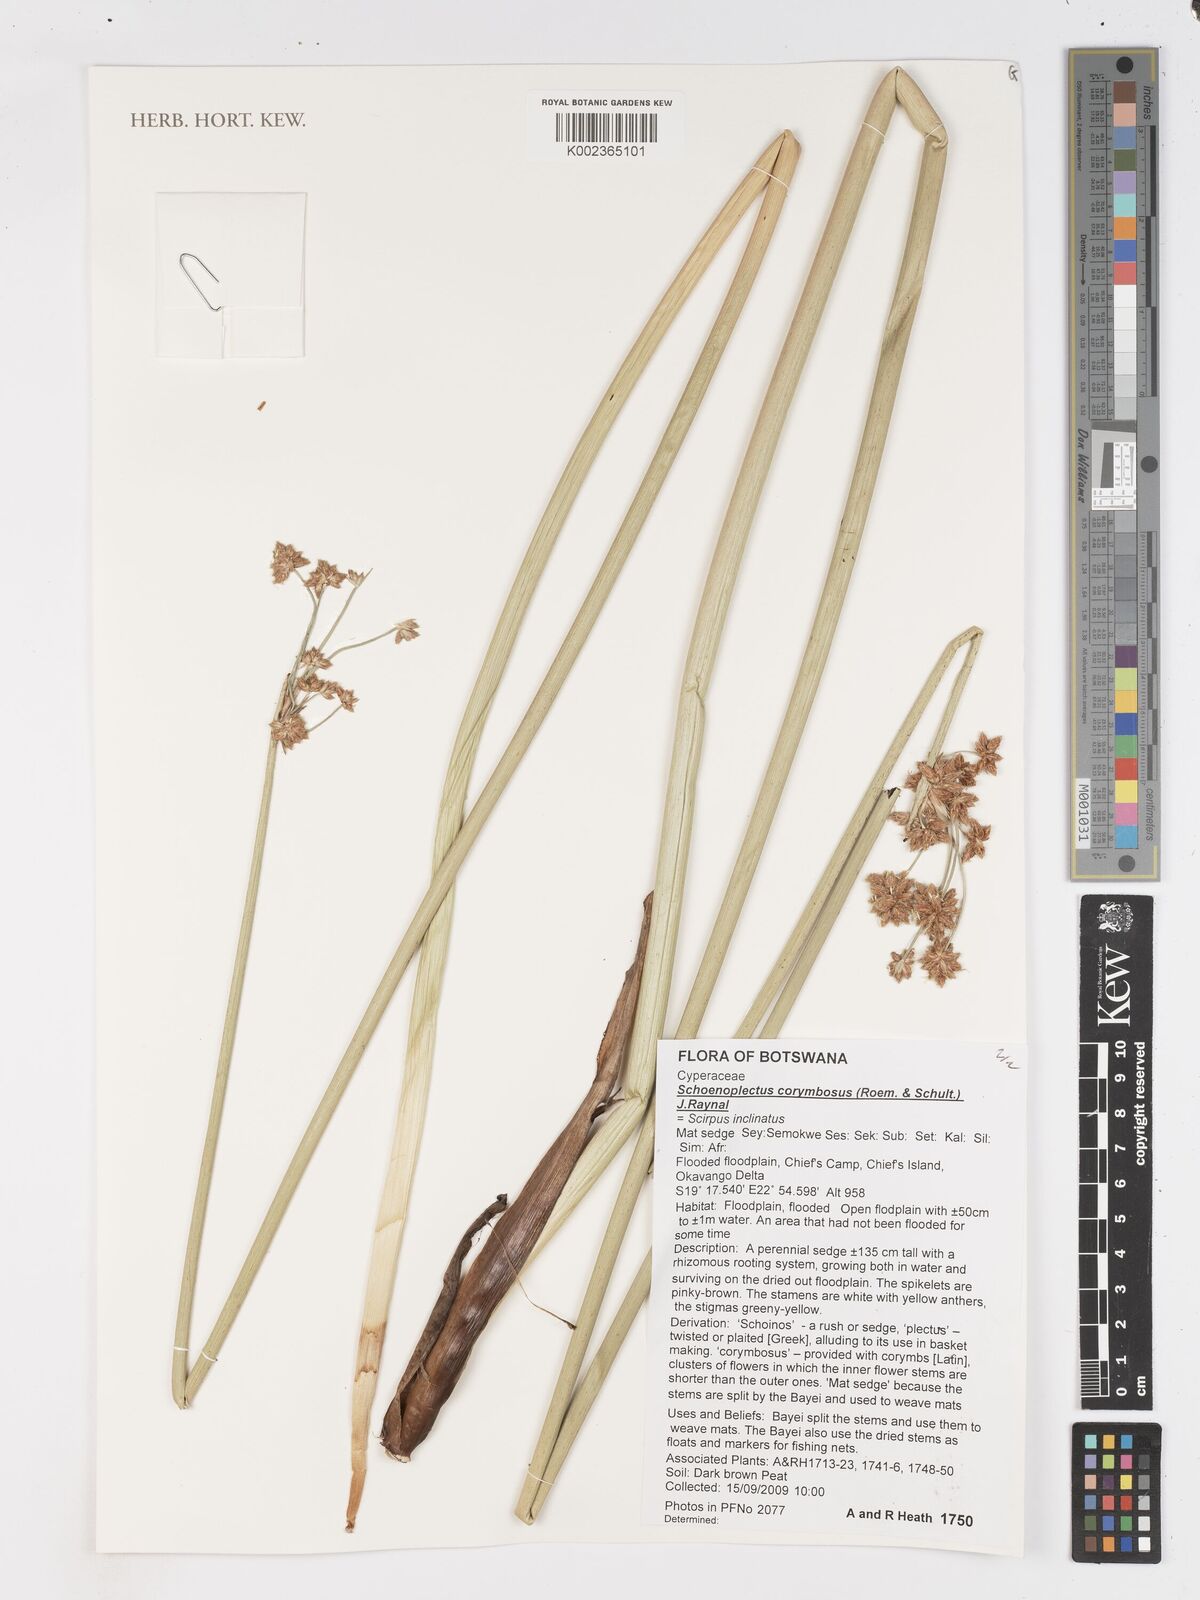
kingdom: Plantae
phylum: Tracheophyta
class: Liliopsida
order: Poales
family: Cyperaceae
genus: Schoenoplectiella
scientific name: Schoenoplectiella corymbosa
